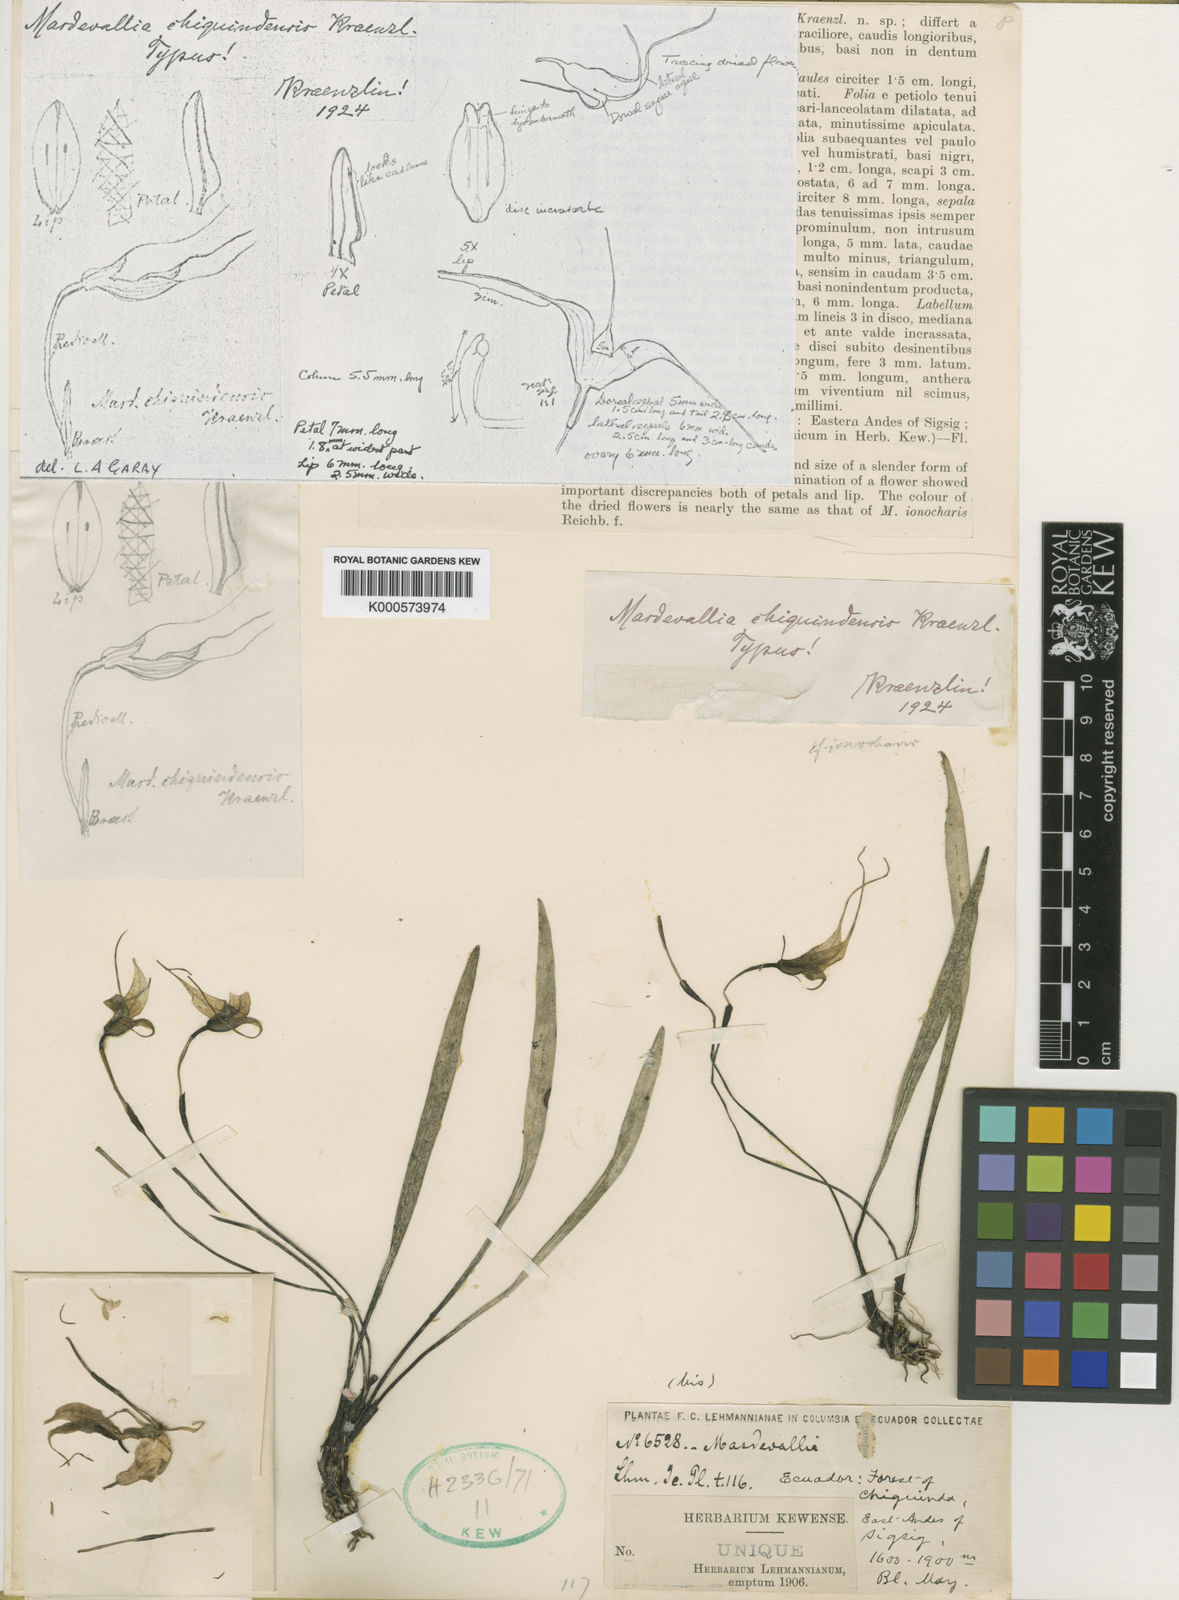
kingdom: Plantae
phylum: Tracheophyta
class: Liliopsida
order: Asparagales
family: Orchidaceae
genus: Masdevallia
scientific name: Masdevallia leucantha
